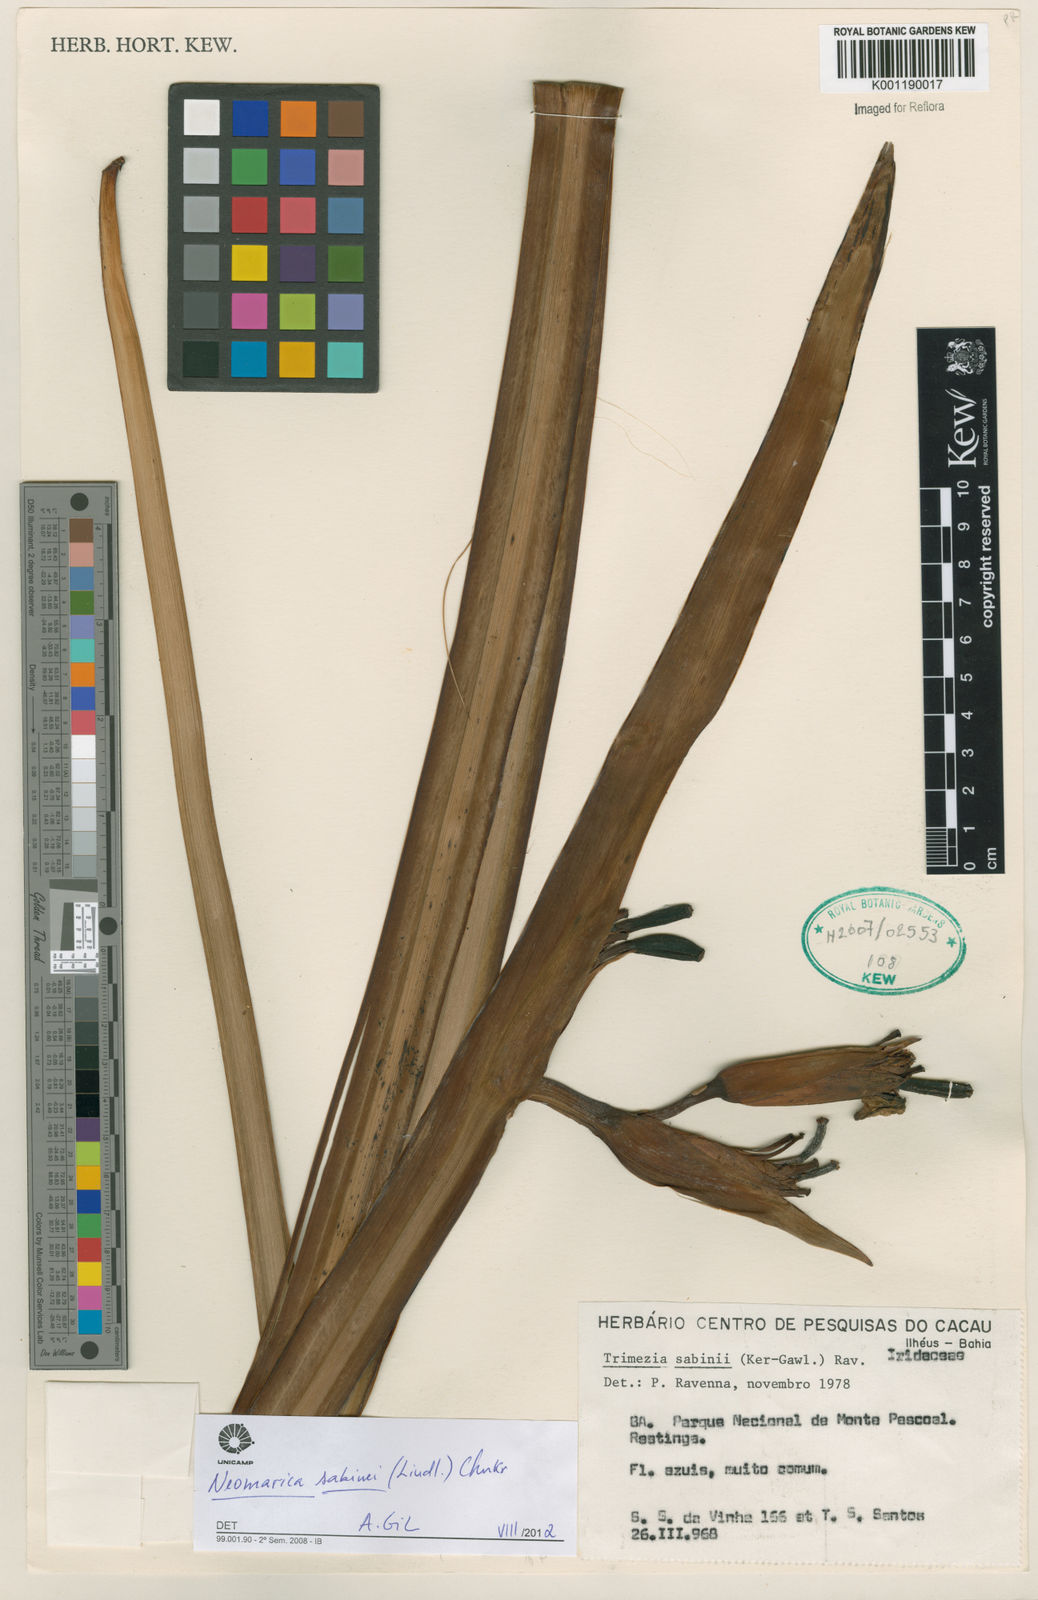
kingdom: Plantae
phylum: Tracheophyta
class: Liliopsida
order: Asparagales
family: Iridaceae
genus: Trimezia
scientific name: Trimezia sabini
